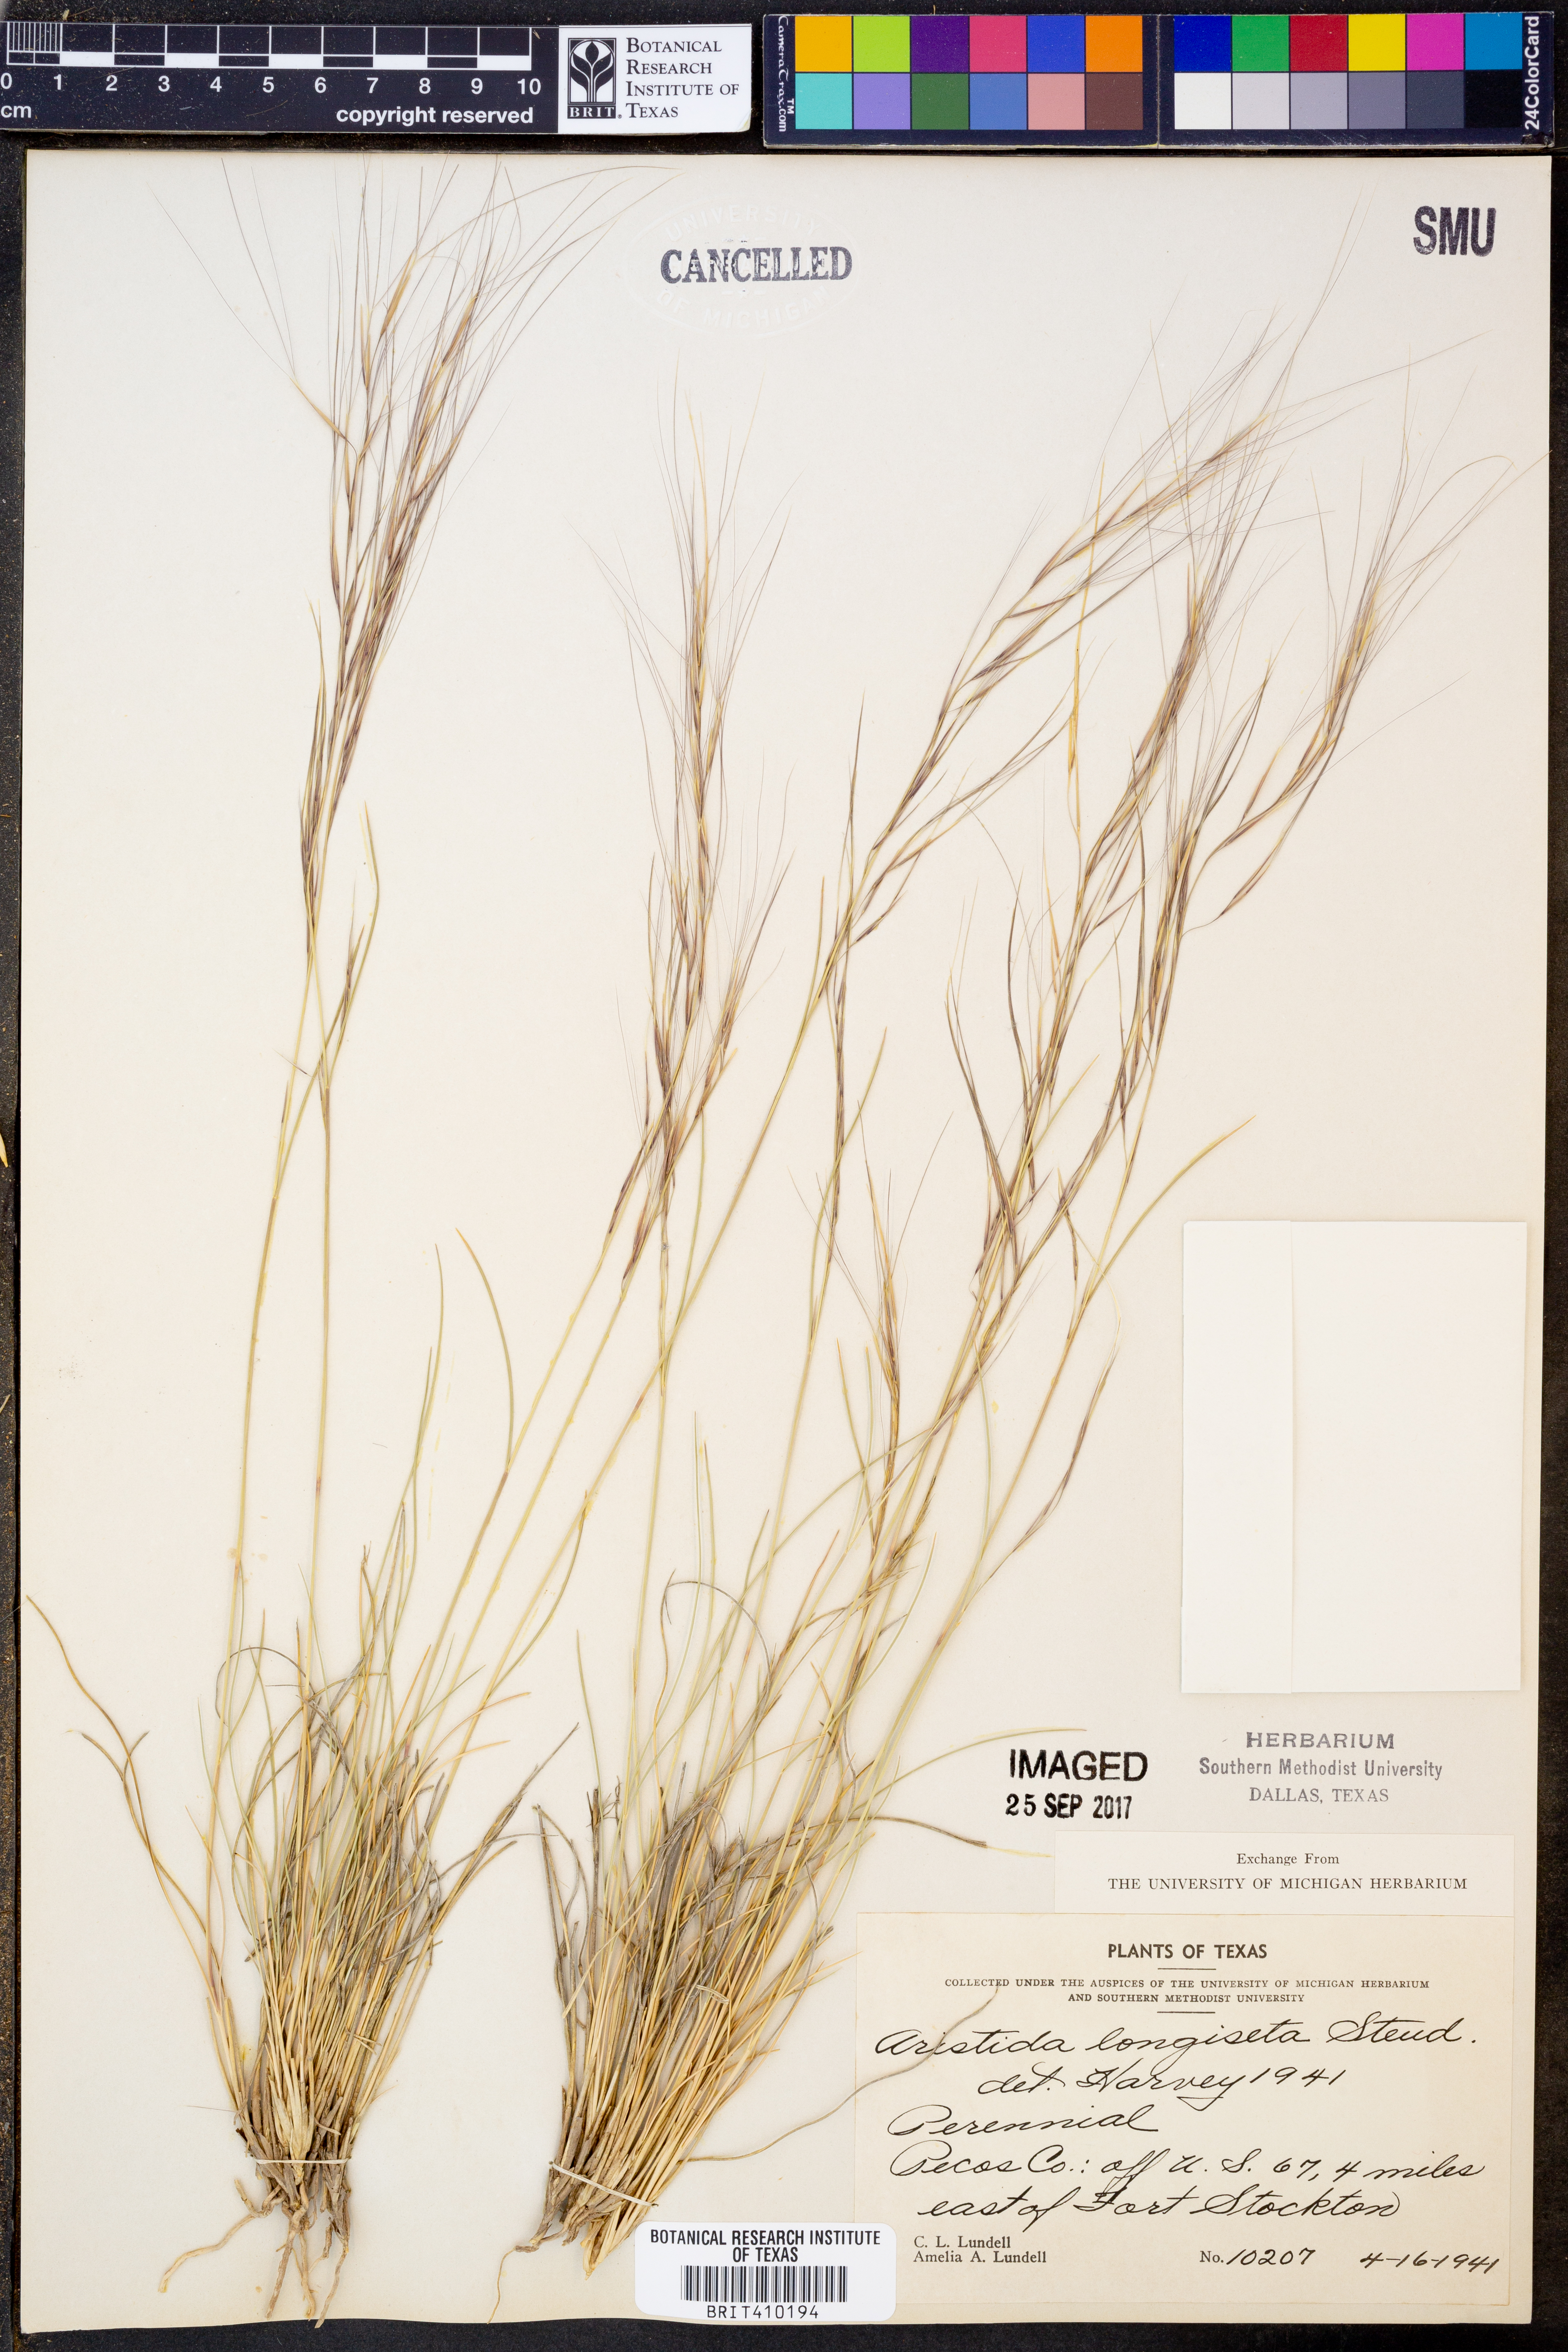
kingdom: Plantae
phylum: Tracheophyta
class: Liliopsida
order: Poales
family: Poaceae
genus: Aristida
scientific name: Aristida longiseta
